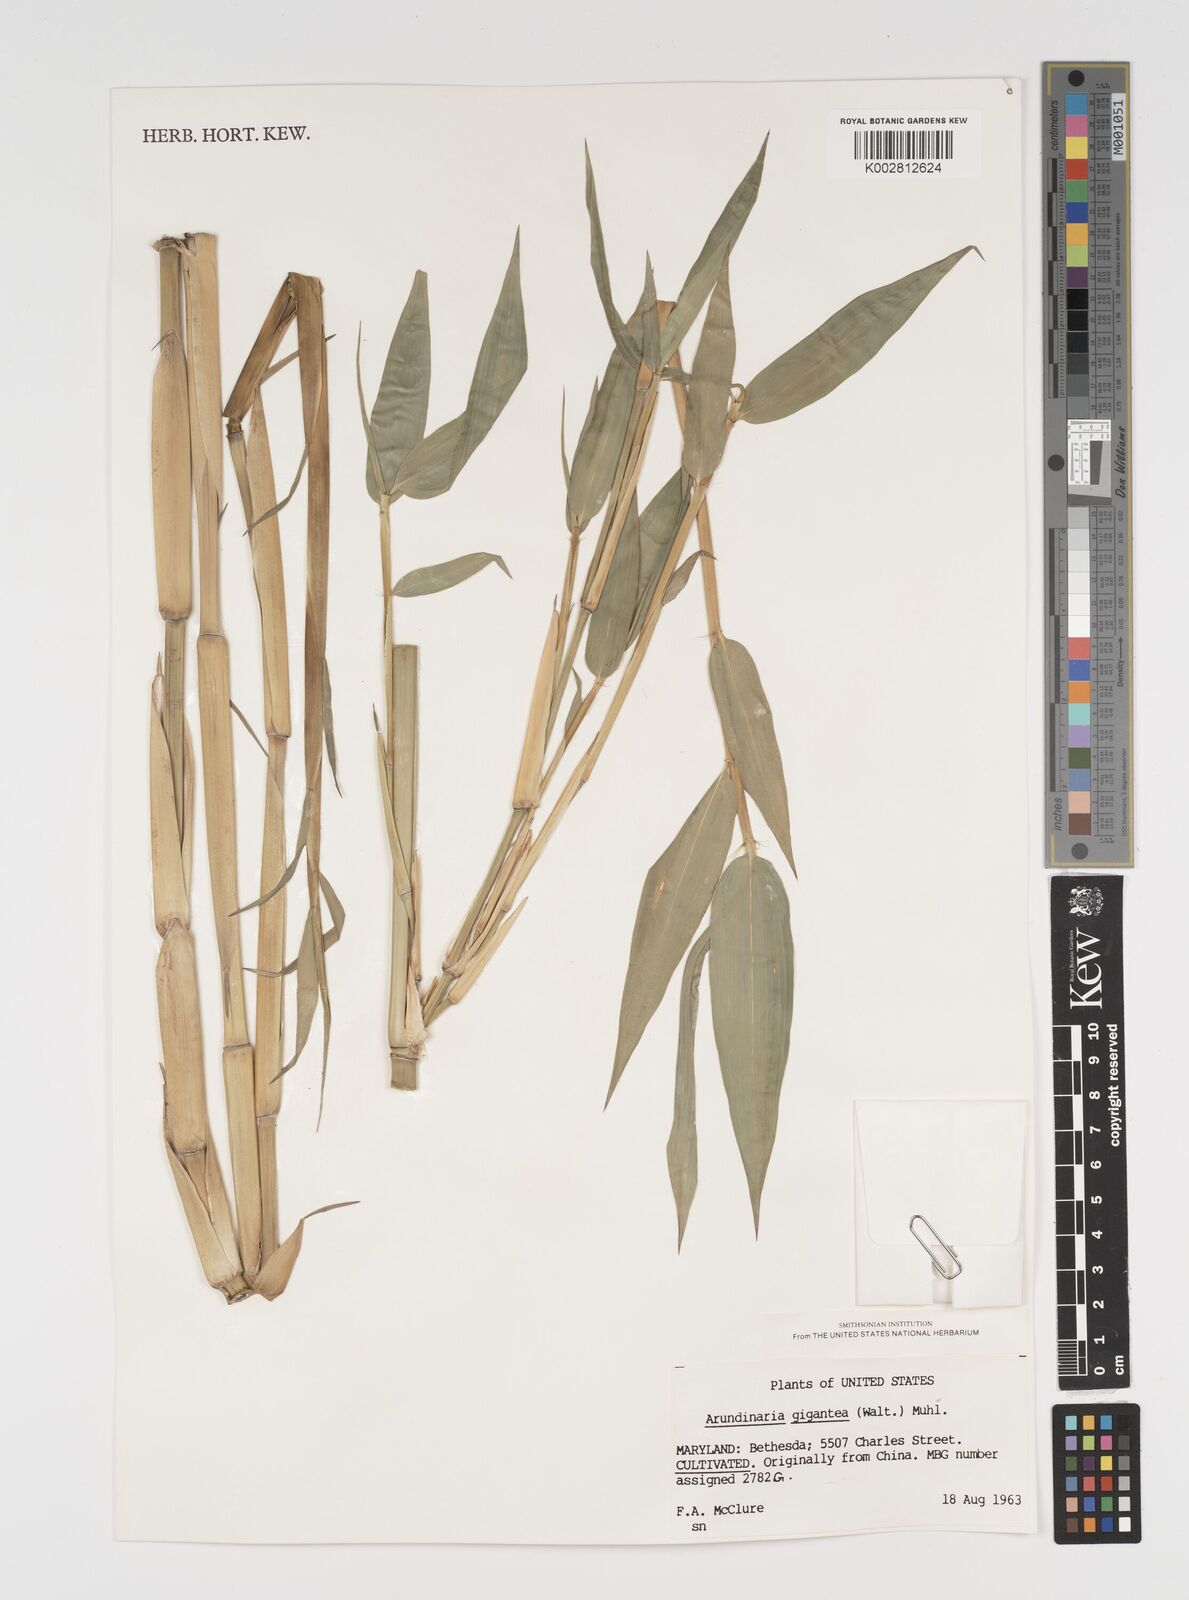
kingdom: Plantae
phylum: Tracheophyta
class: Liliopsida
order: Poales
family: Poaceae
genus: Arundinaria
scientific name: Arundinaria
